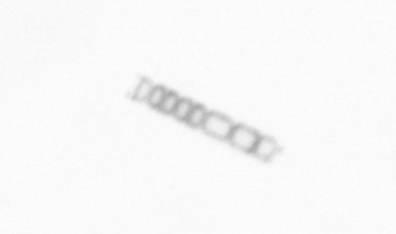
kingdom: Chromista
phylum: Ochrophyta
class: Bacillariophyceae
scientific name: Bacillariophyceae
